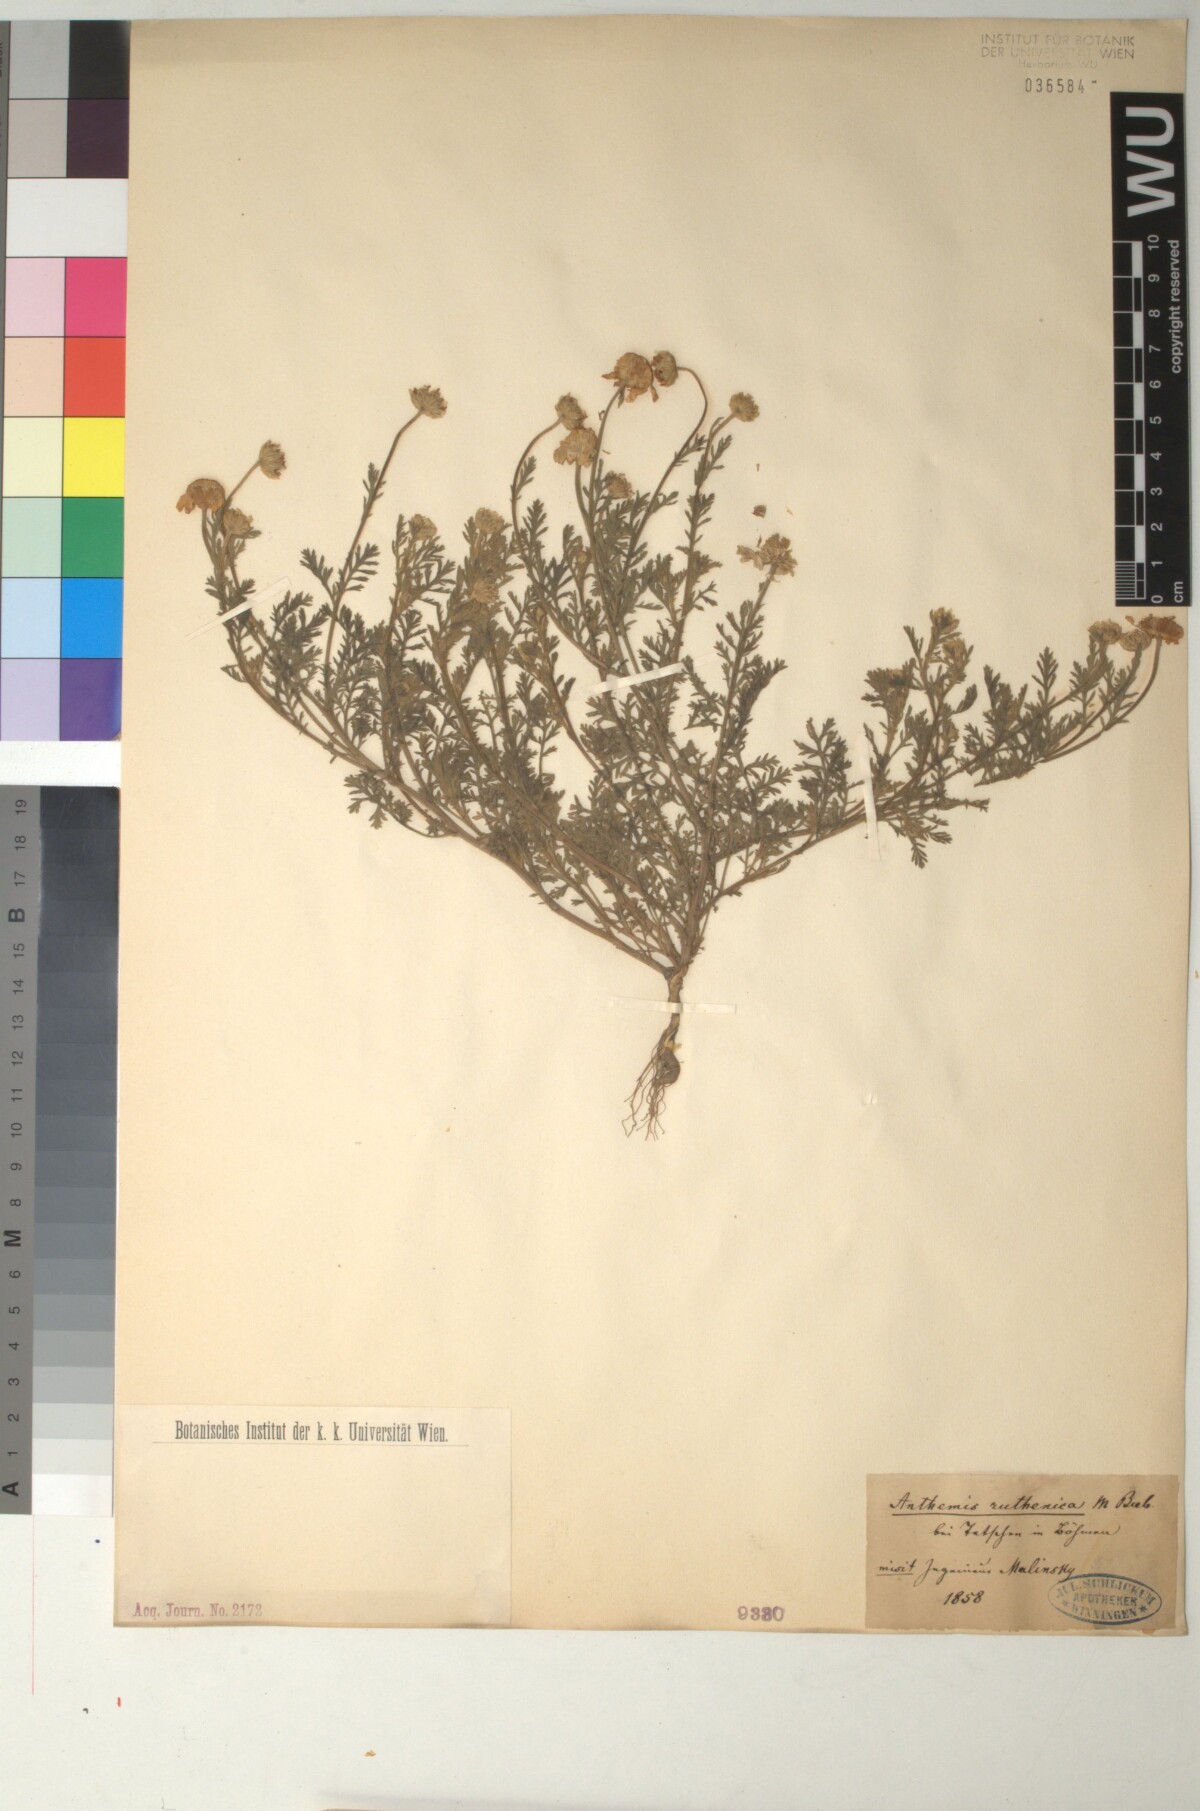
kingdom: Plantae
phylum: Tracheophyta
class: Magnoliopsida
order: Asterales
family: Asteraceae
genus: Anthemis
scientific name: Anthemis ruthenica
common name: Eastern chamomile
